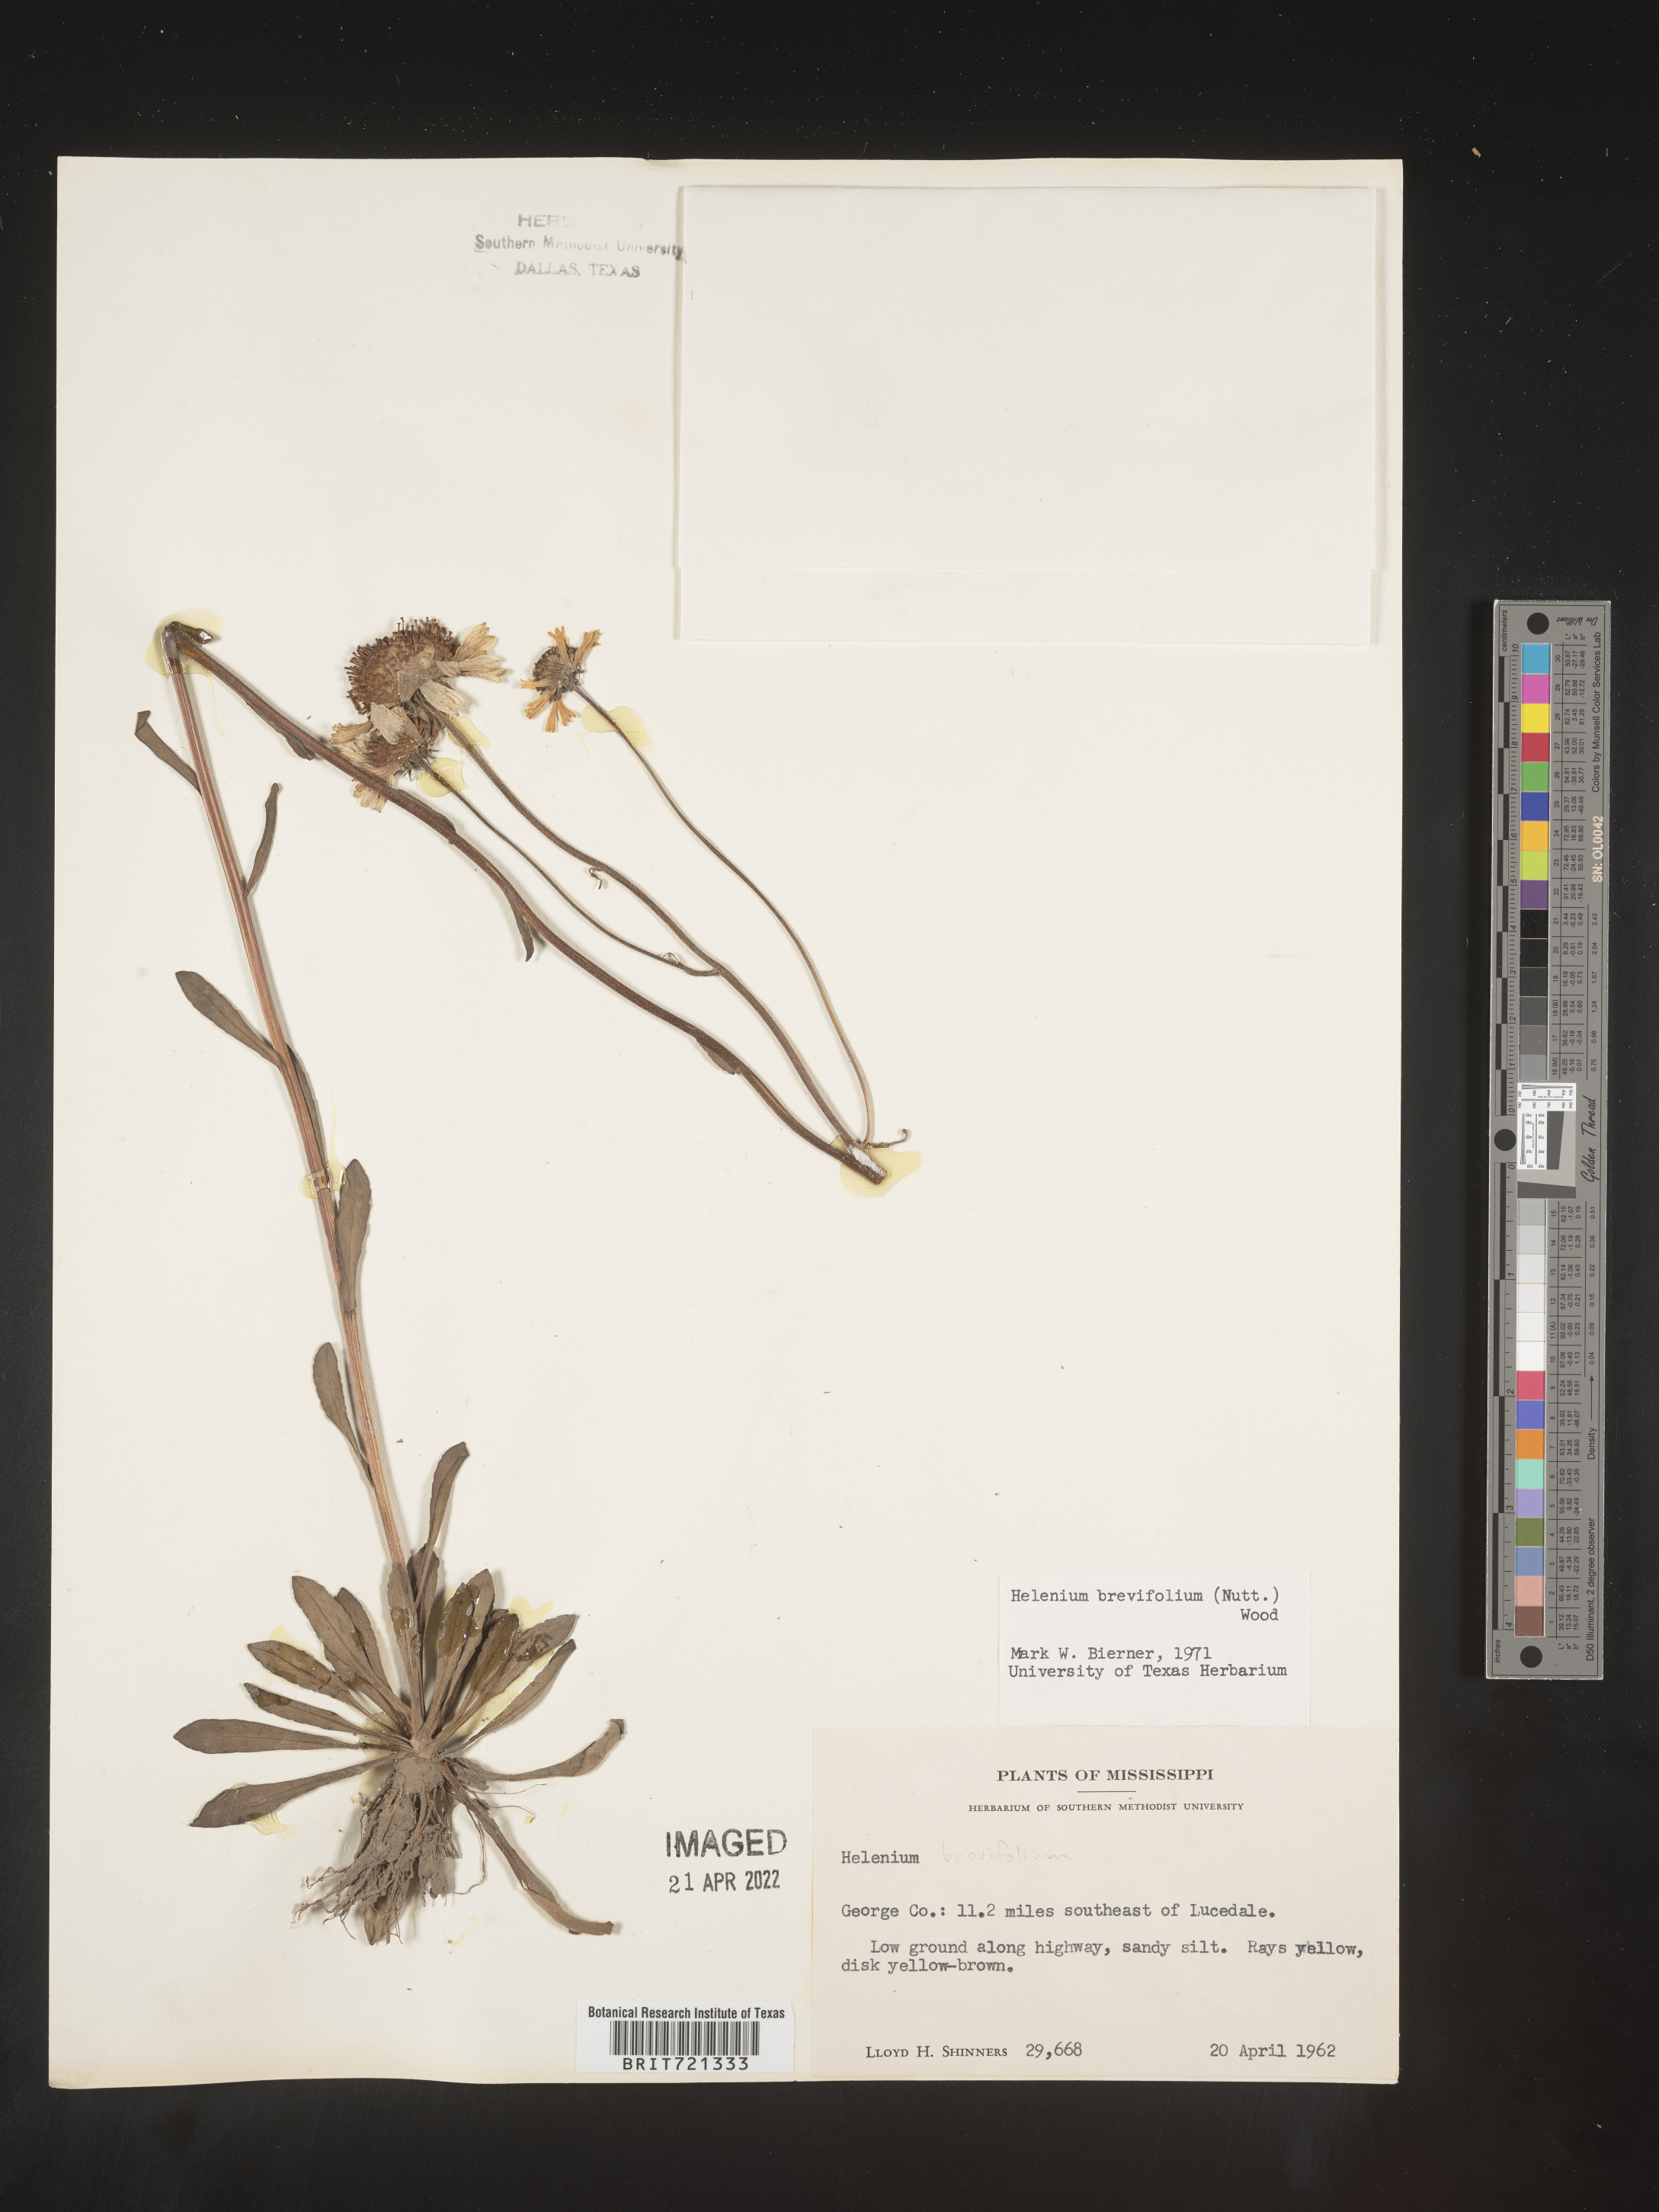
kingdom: Plantae
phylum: Tracheophyta
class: Magnoliopsida
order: Asterales
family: Asteraceae
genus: Helenium
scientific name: Helenium
